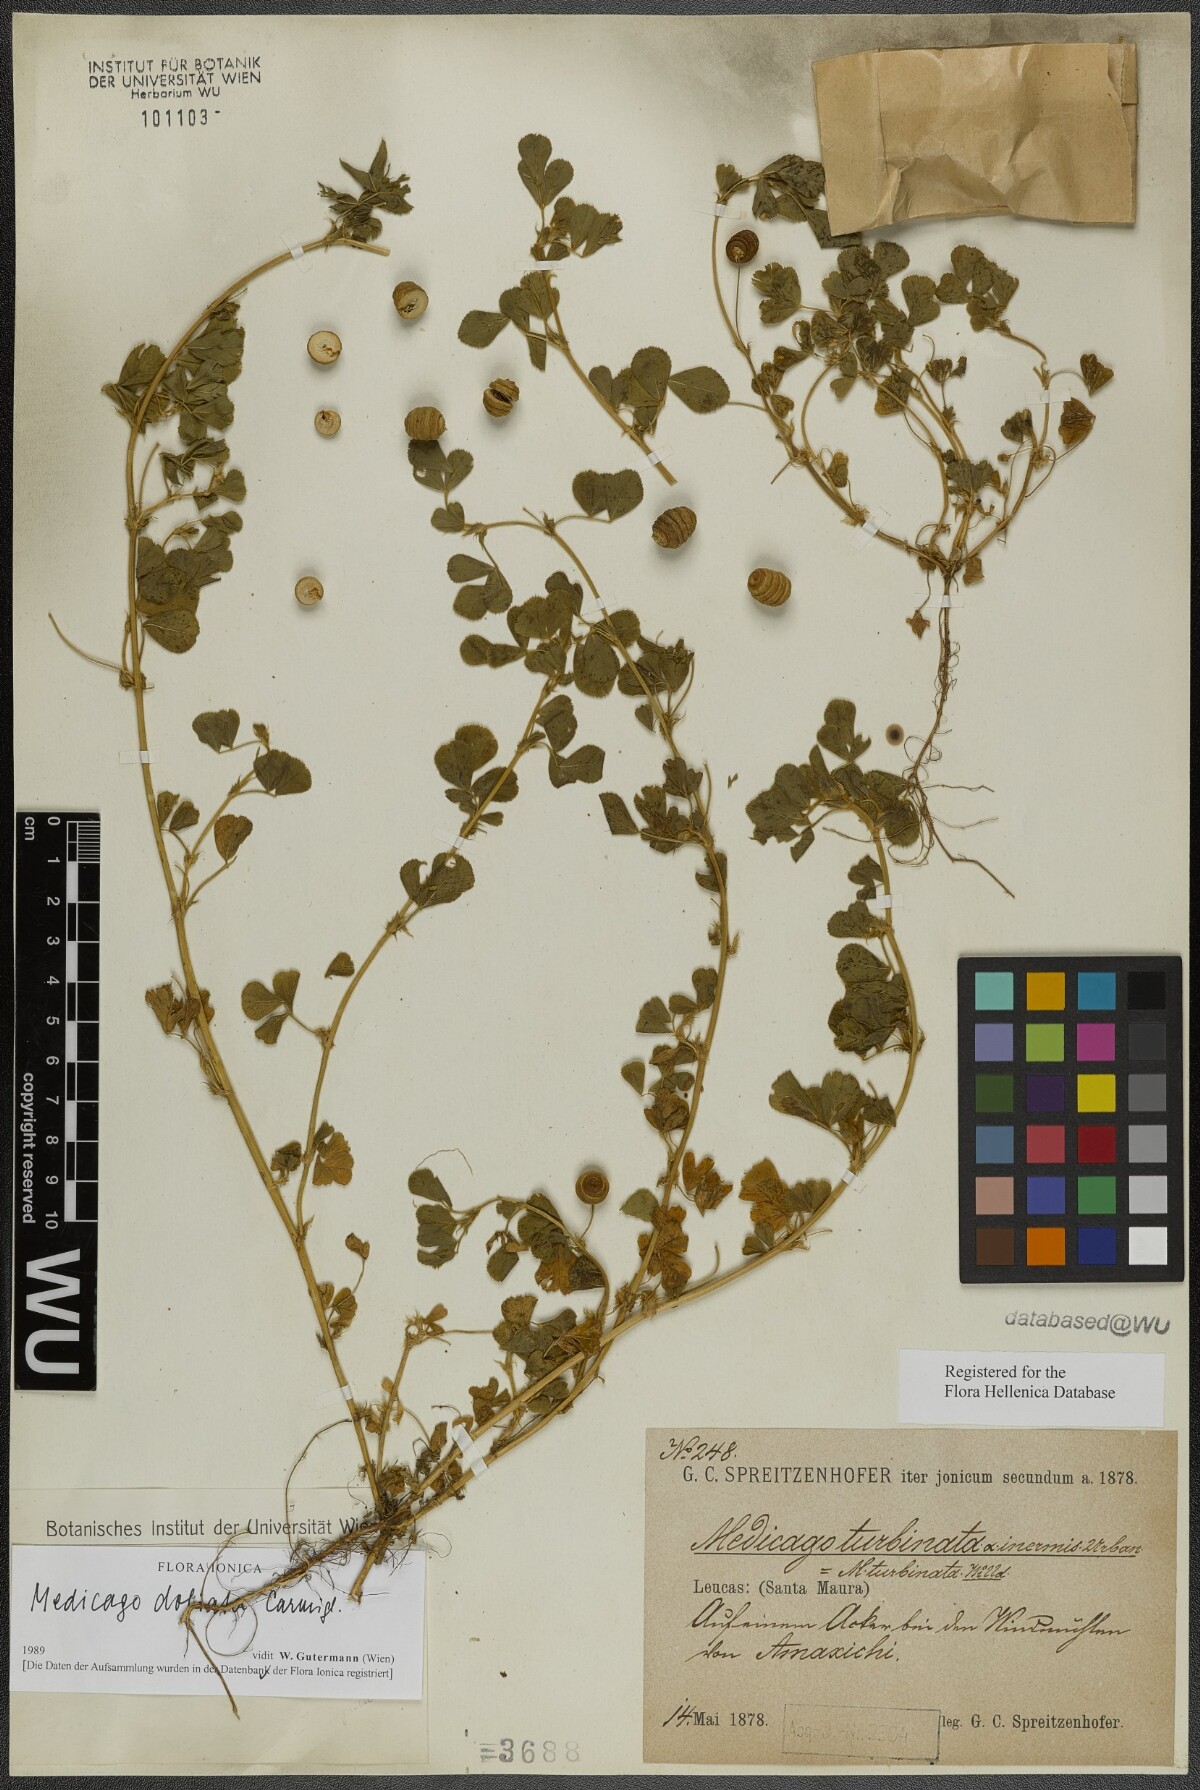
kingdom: Plantae
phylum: Tracheophyta
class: Magnoliopsida
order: Fabales
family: Fabaceae
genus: Medicago
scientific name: Medicago doliata
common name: Keg medic
